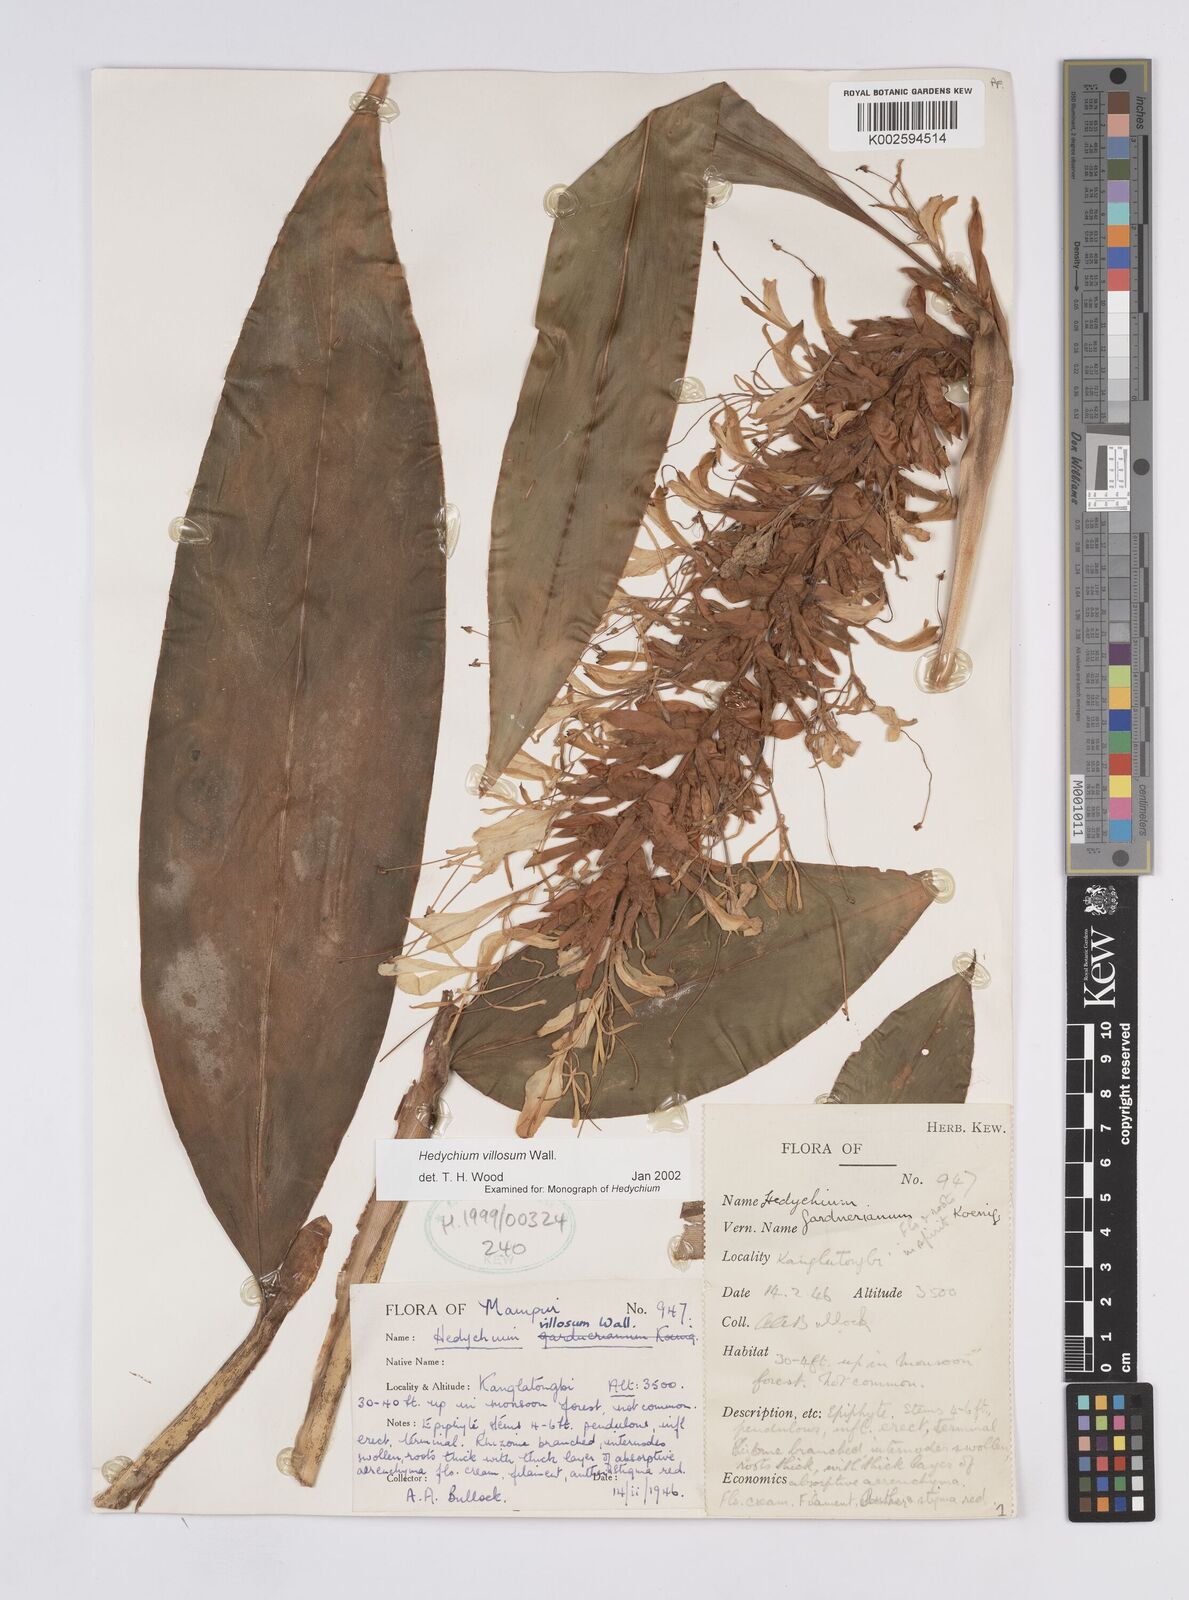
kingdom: Plantae
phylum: Tracheophyta
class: Liliopsida
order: Zingiberales
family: Zingiberaceae
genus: Hedychium
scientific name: Hedychium villosum
